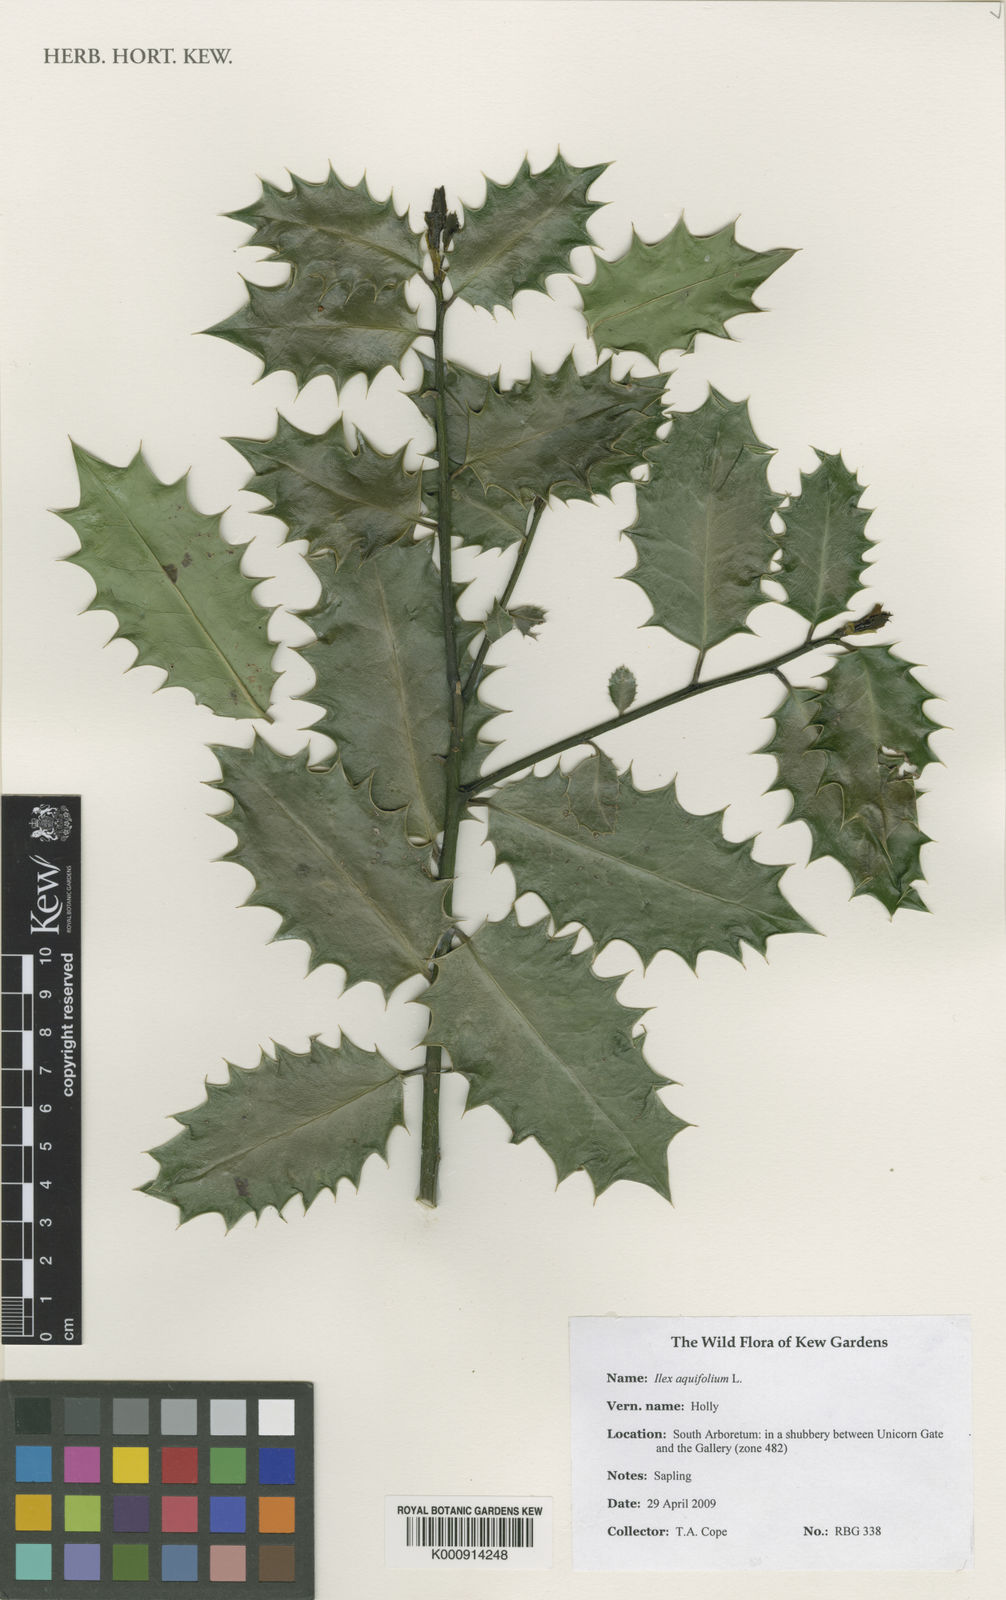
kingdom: Plantae
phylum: Tracheophyta
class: Magnoliopsida
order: Aquifoliales
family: Aquifoliaceae
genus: Ilex
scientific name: Ilex aquifolium
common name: English holly
